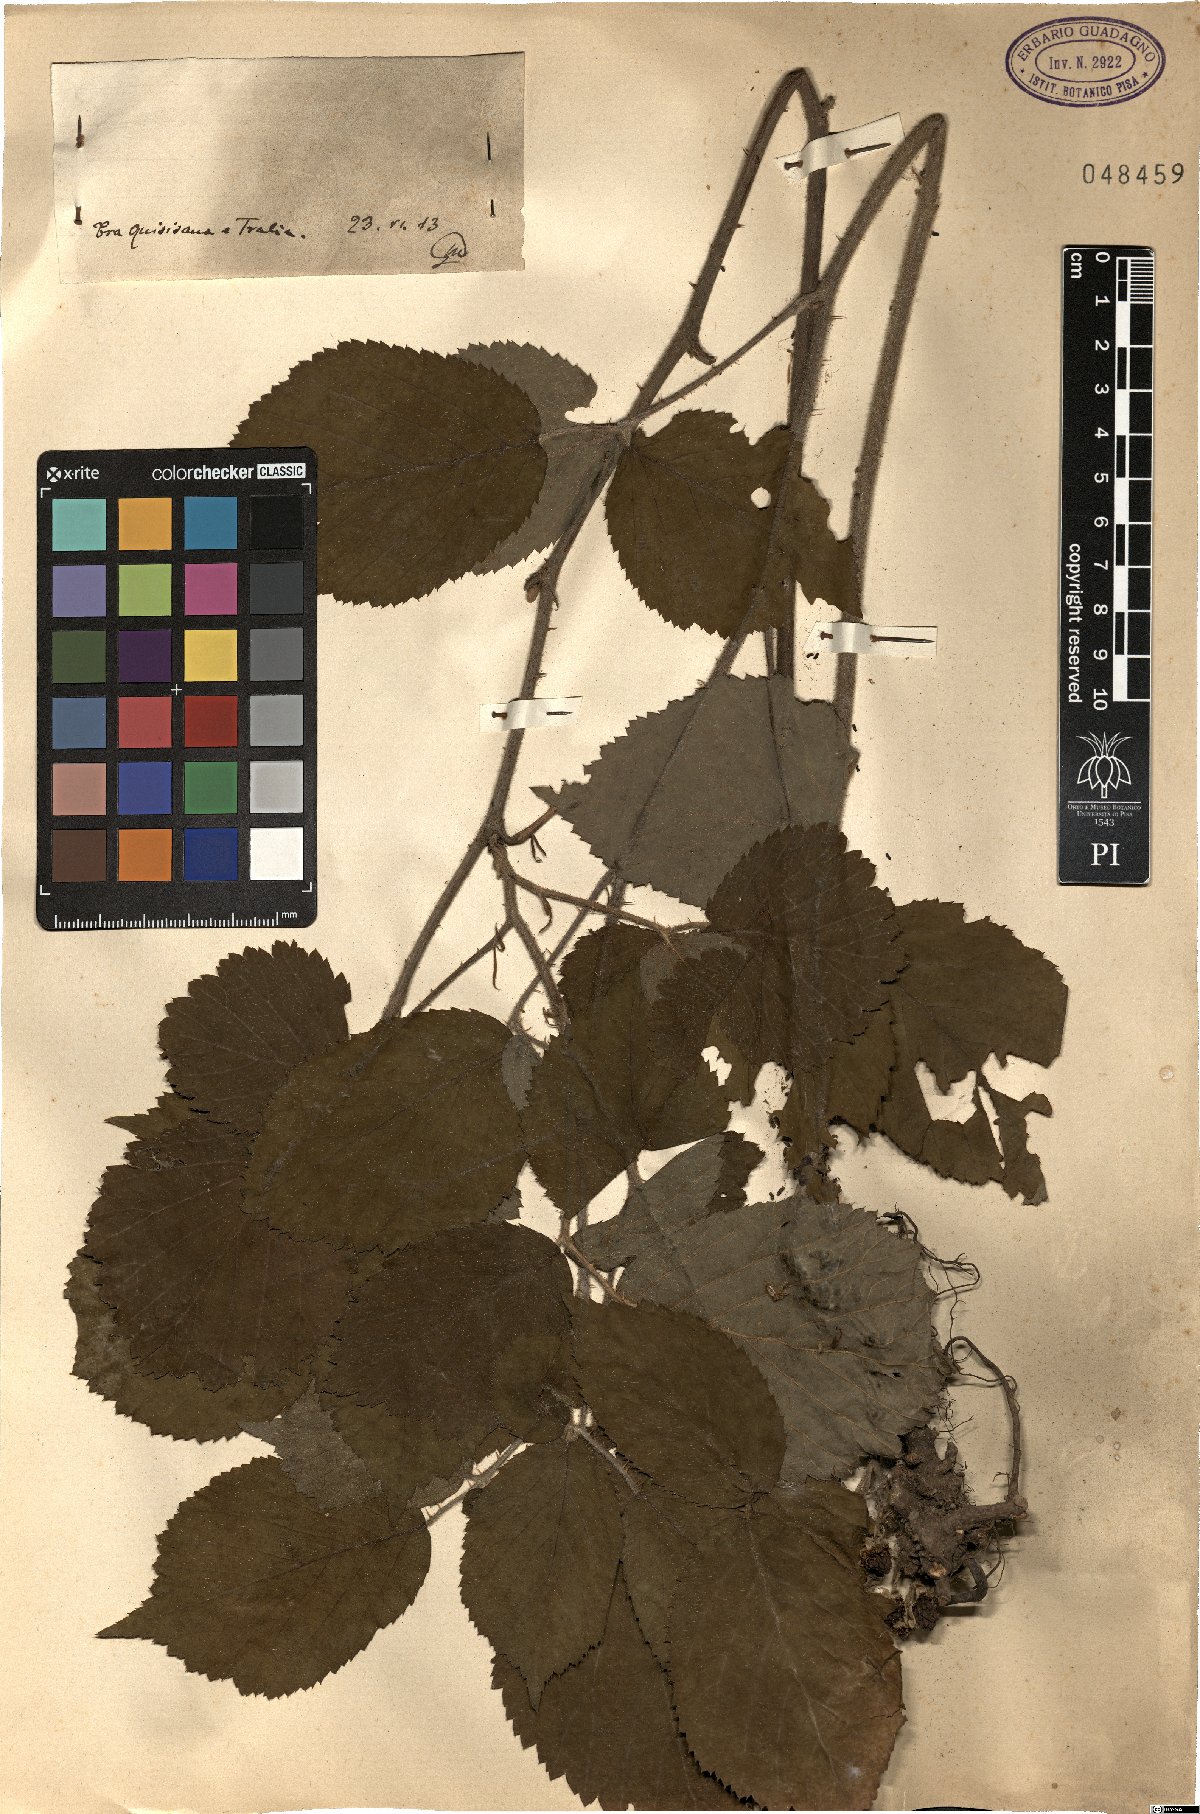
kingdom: Plantae
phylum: Tracheophyta
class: Magnoliopsida
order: Rosales
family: Rosaceae
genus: Rubus
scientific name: Rubus
